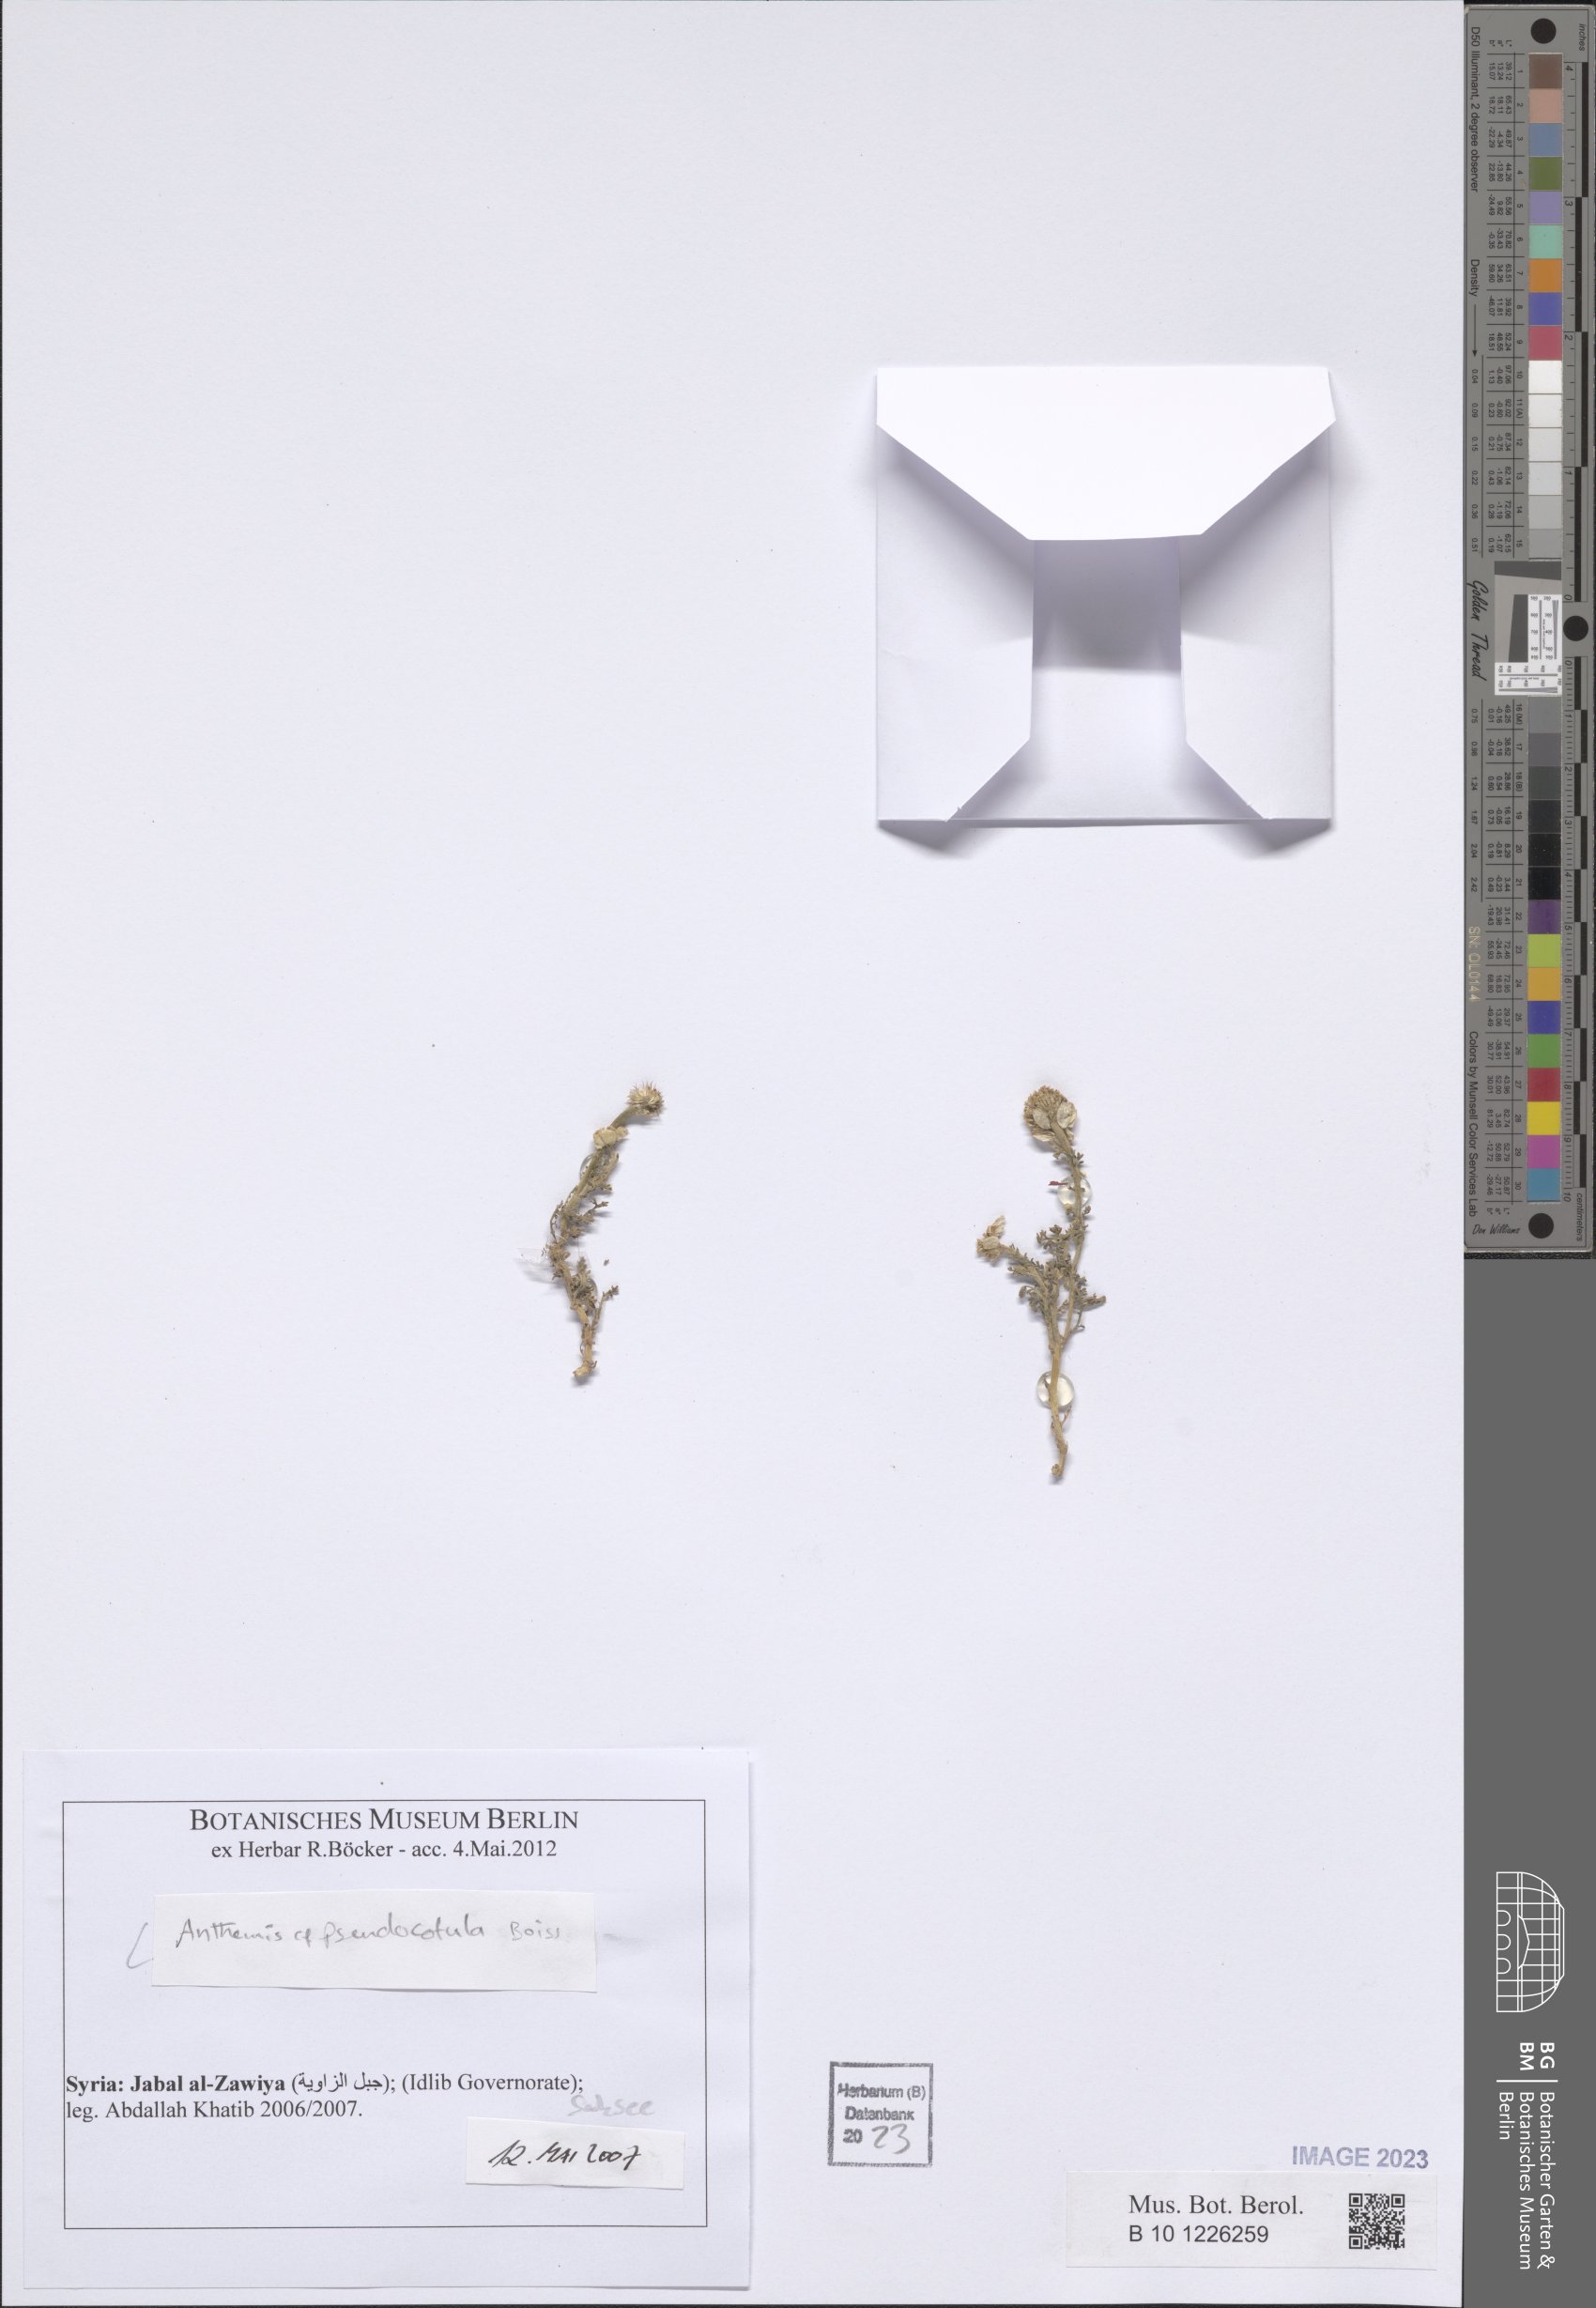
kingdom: Plantae
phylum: Tracheophyta
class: Magnoliopsida
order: Asterales
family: Asteraceae
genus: Anthemis
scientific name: Anthemis pseudocotula
